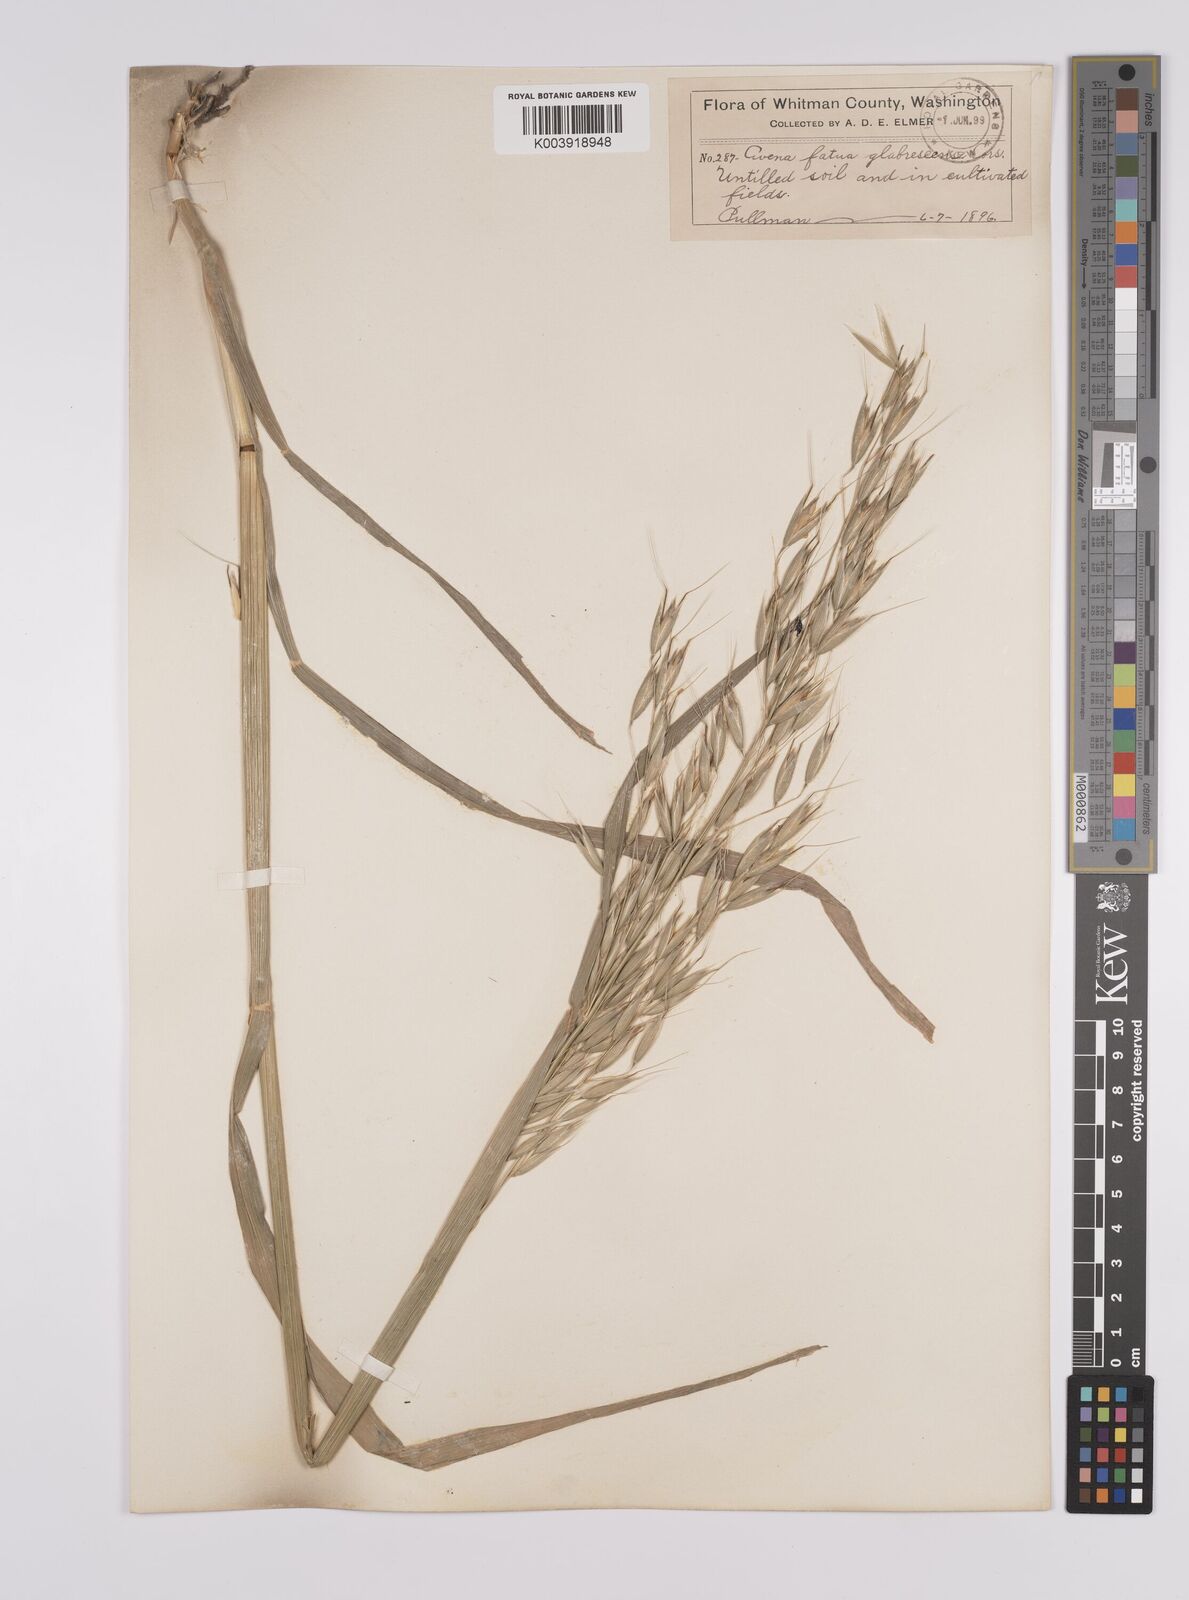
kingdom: Plantae
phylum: Tracheophyta
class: Liliopsida
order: Poales
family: Poaceae
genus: Avena
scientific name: Avena fatua
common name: Wild oat
